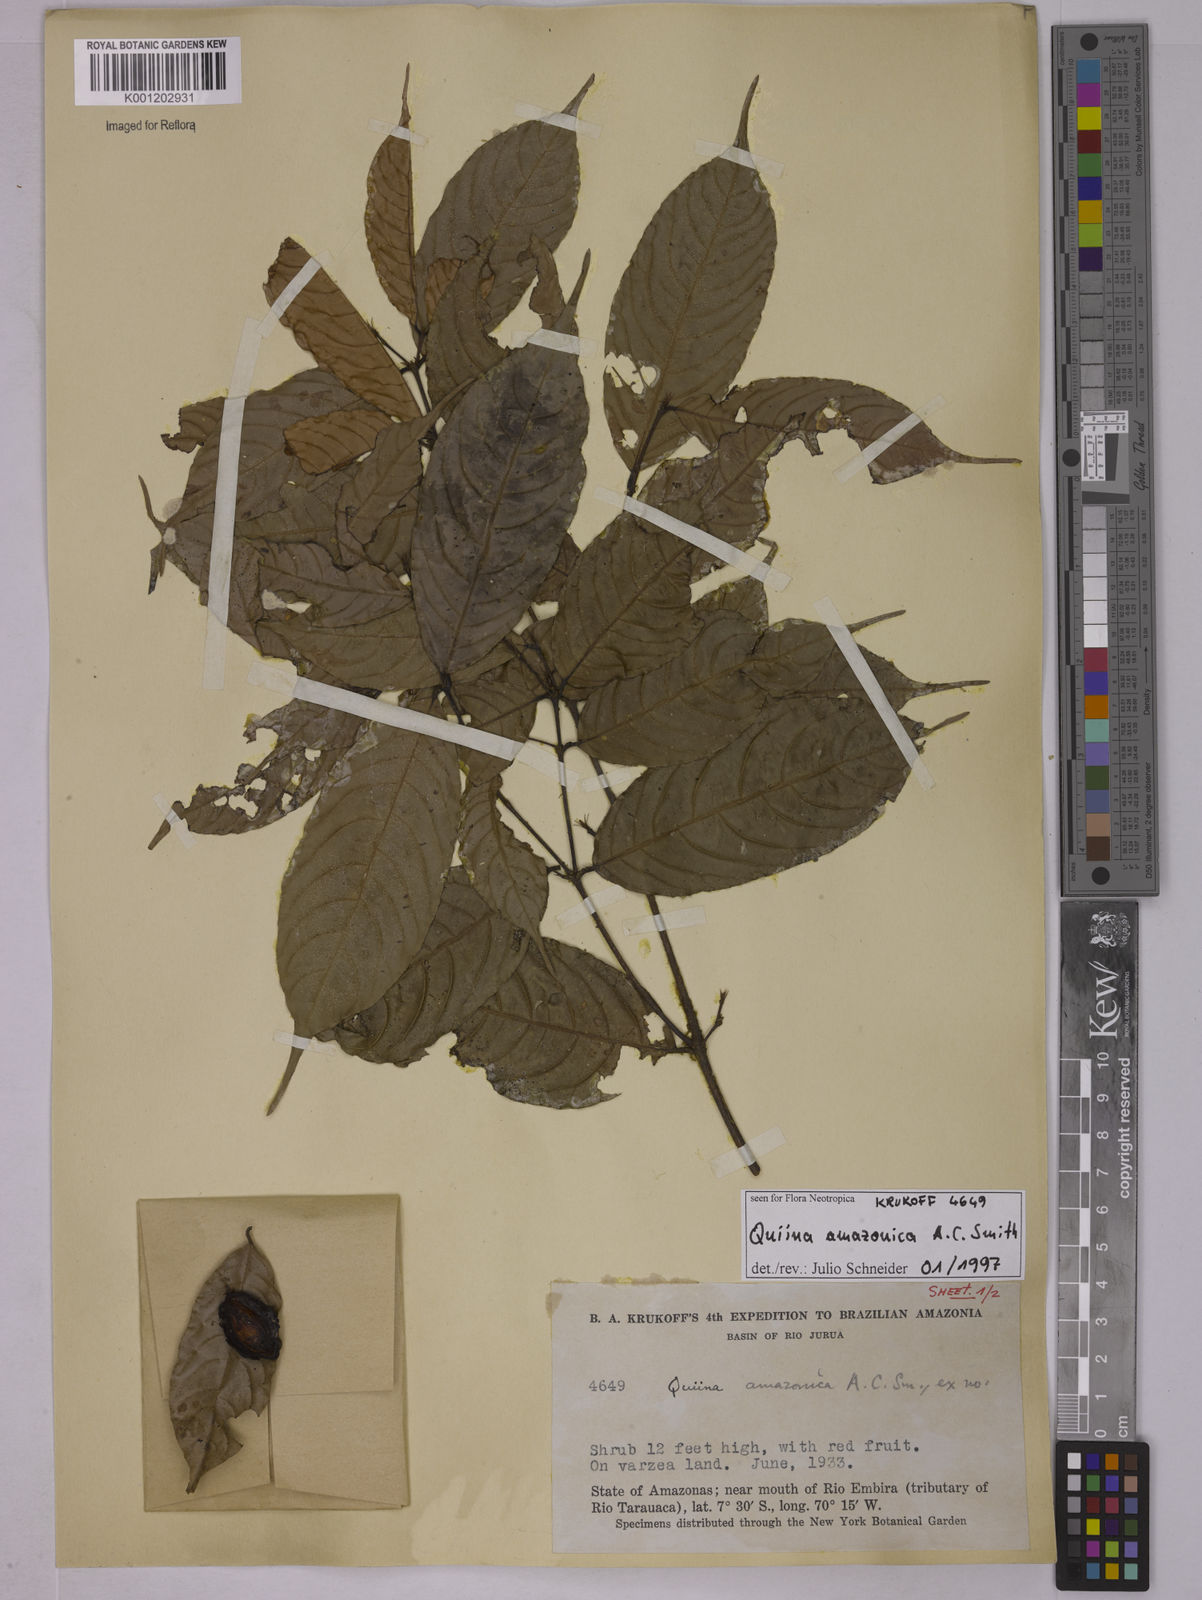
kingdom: Plantae
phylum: Tracheophyta
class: Magnoliopsida
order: Malpighiales
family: Quiinaceae
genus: Quiina
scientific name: Quiina amazonica
